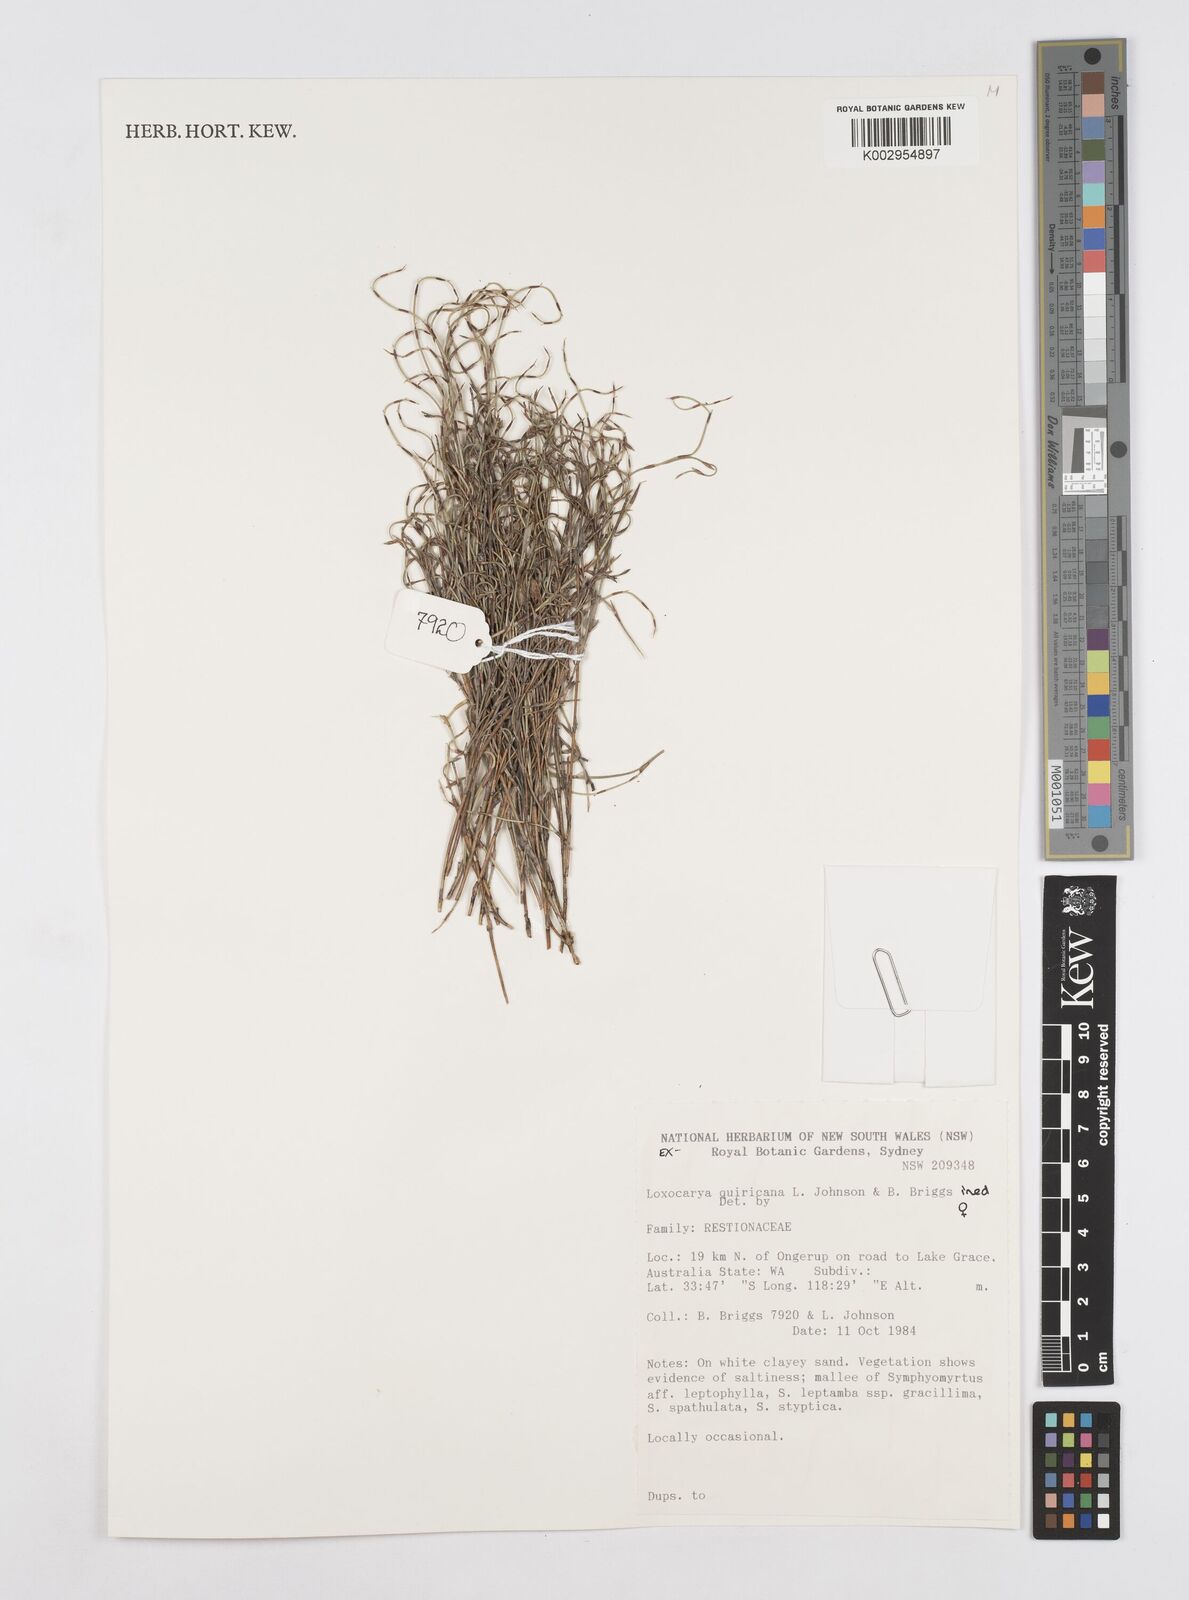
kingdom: Plantae
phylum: Tracheophyta
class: Liliopsida
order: Poales
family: Restionaceae
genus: Desmocladus
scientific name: Desmocladus quiricanus
